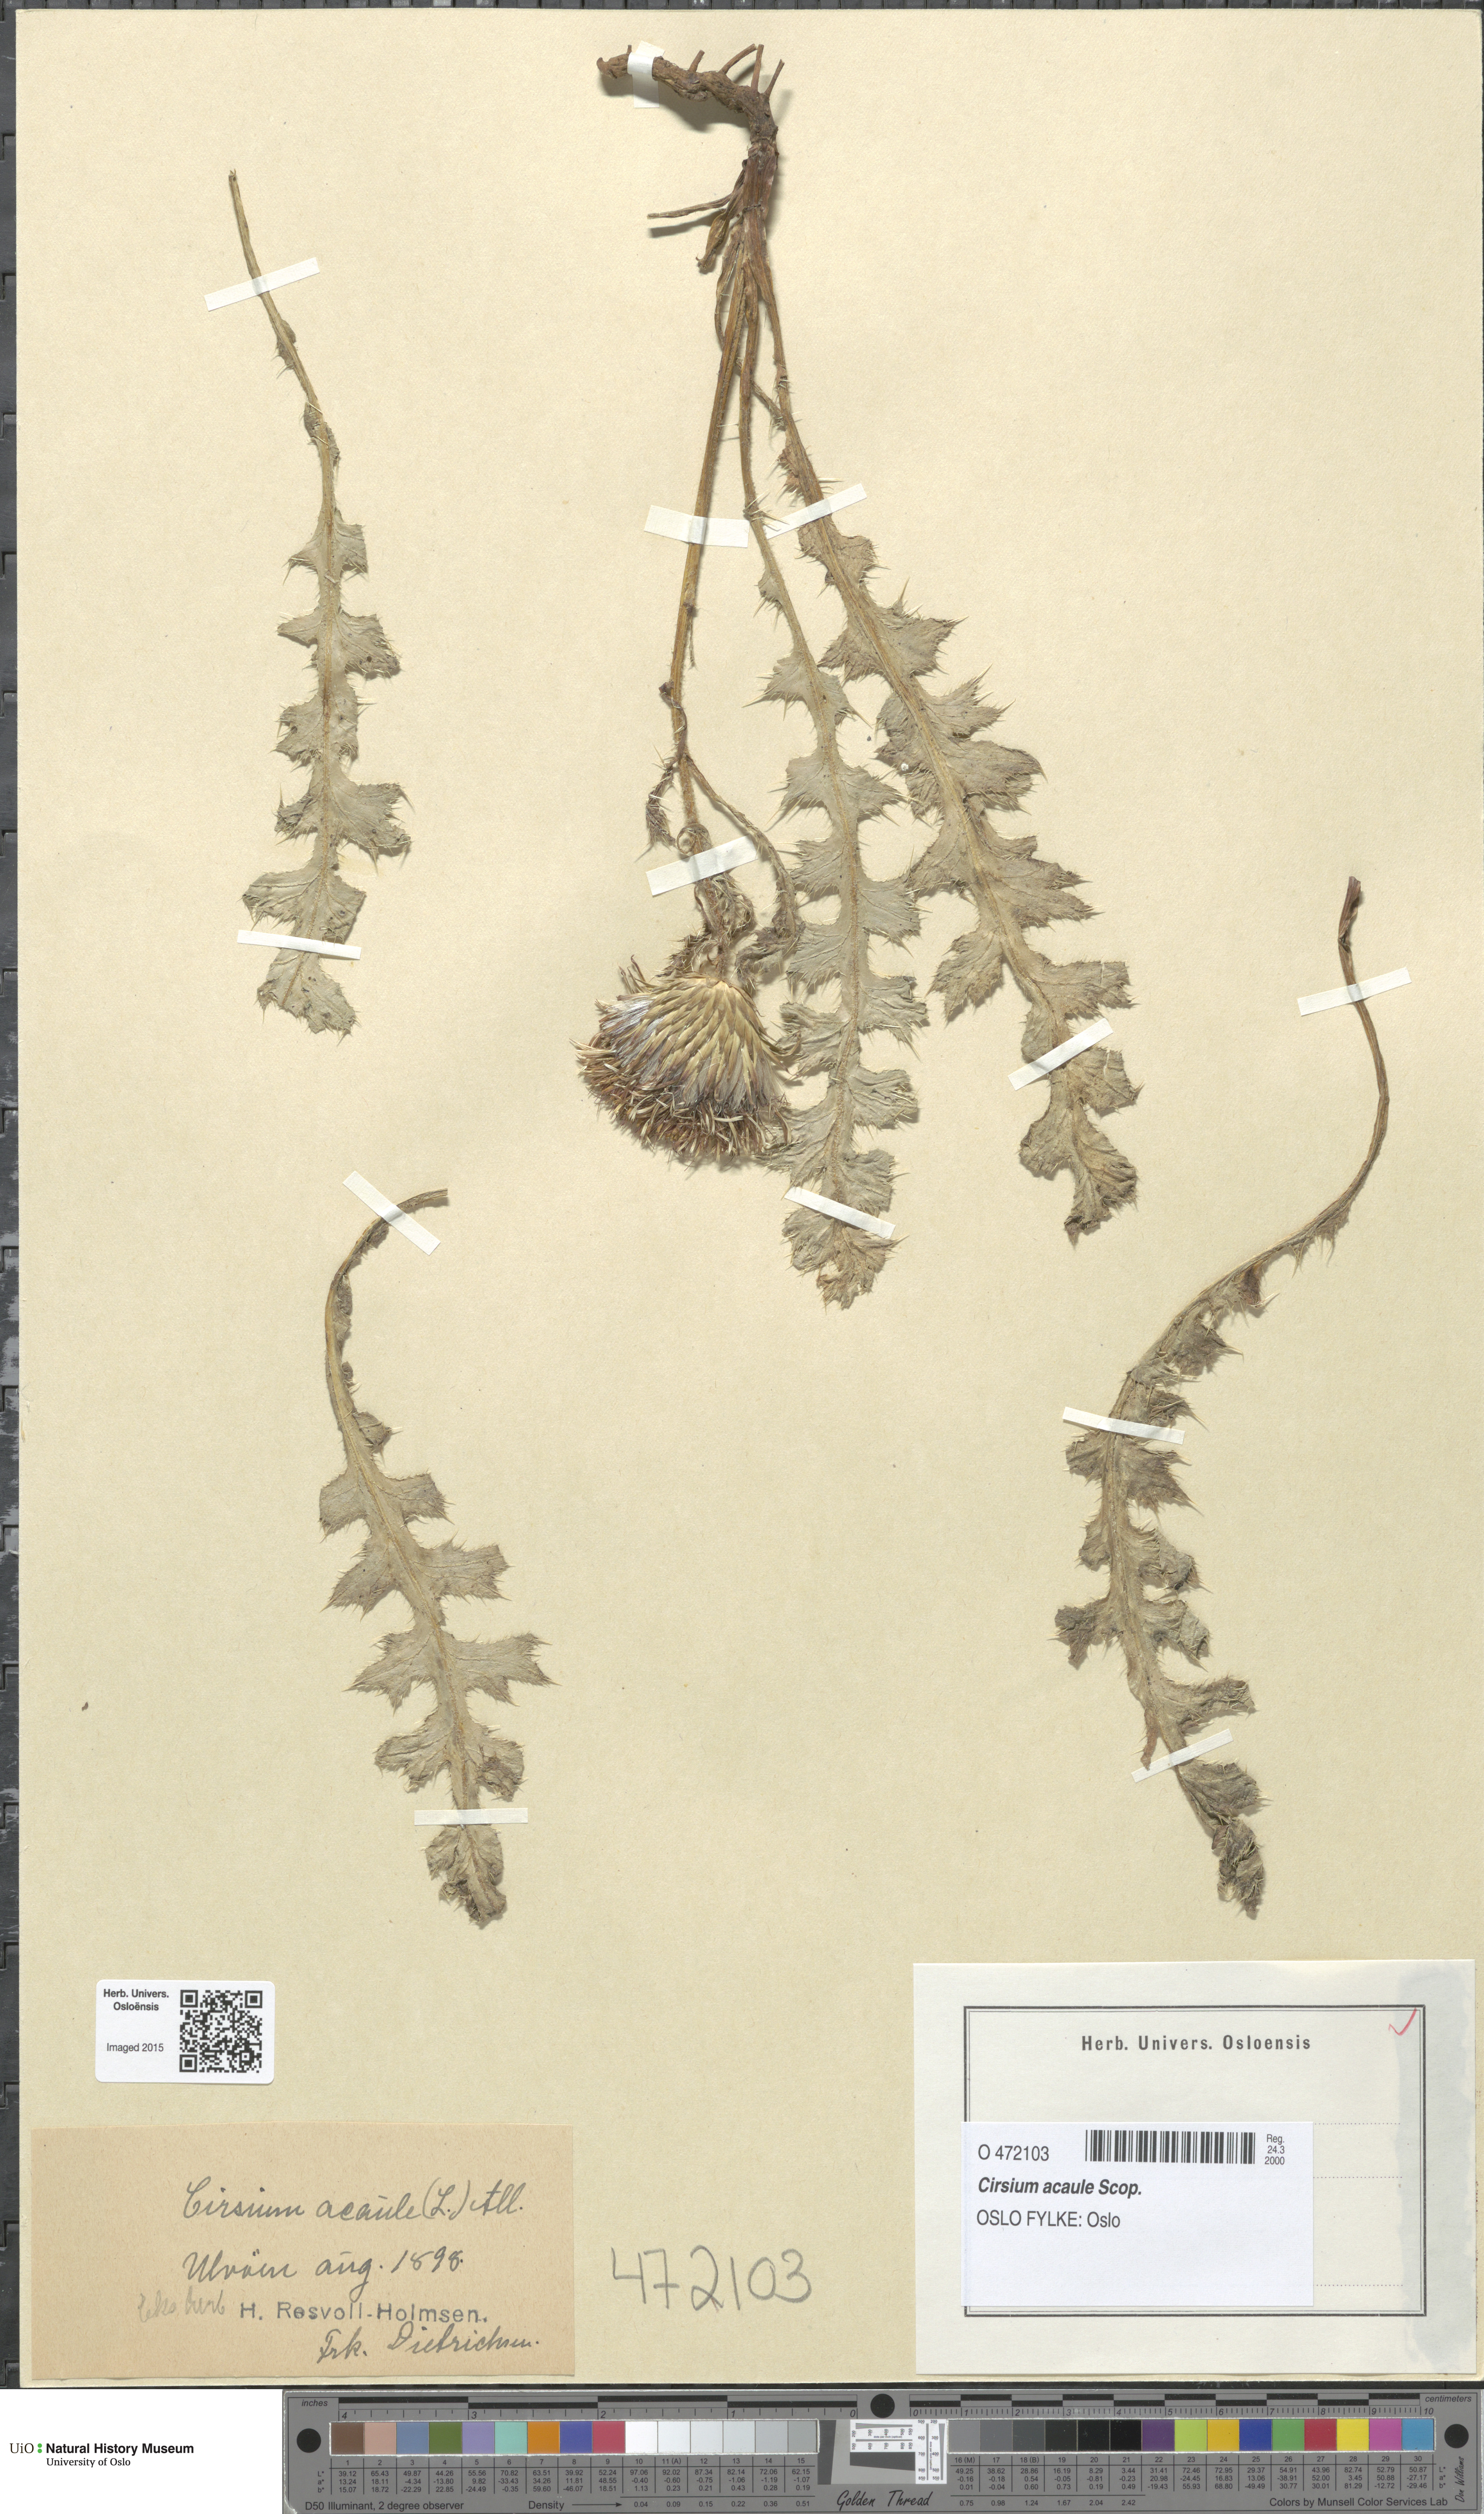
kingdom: Plantae
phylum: Tracheophyta
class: Magnoliopsida
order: Asterales
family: Asteraceae
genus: Cirsium
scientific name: Cirsium acaulon
